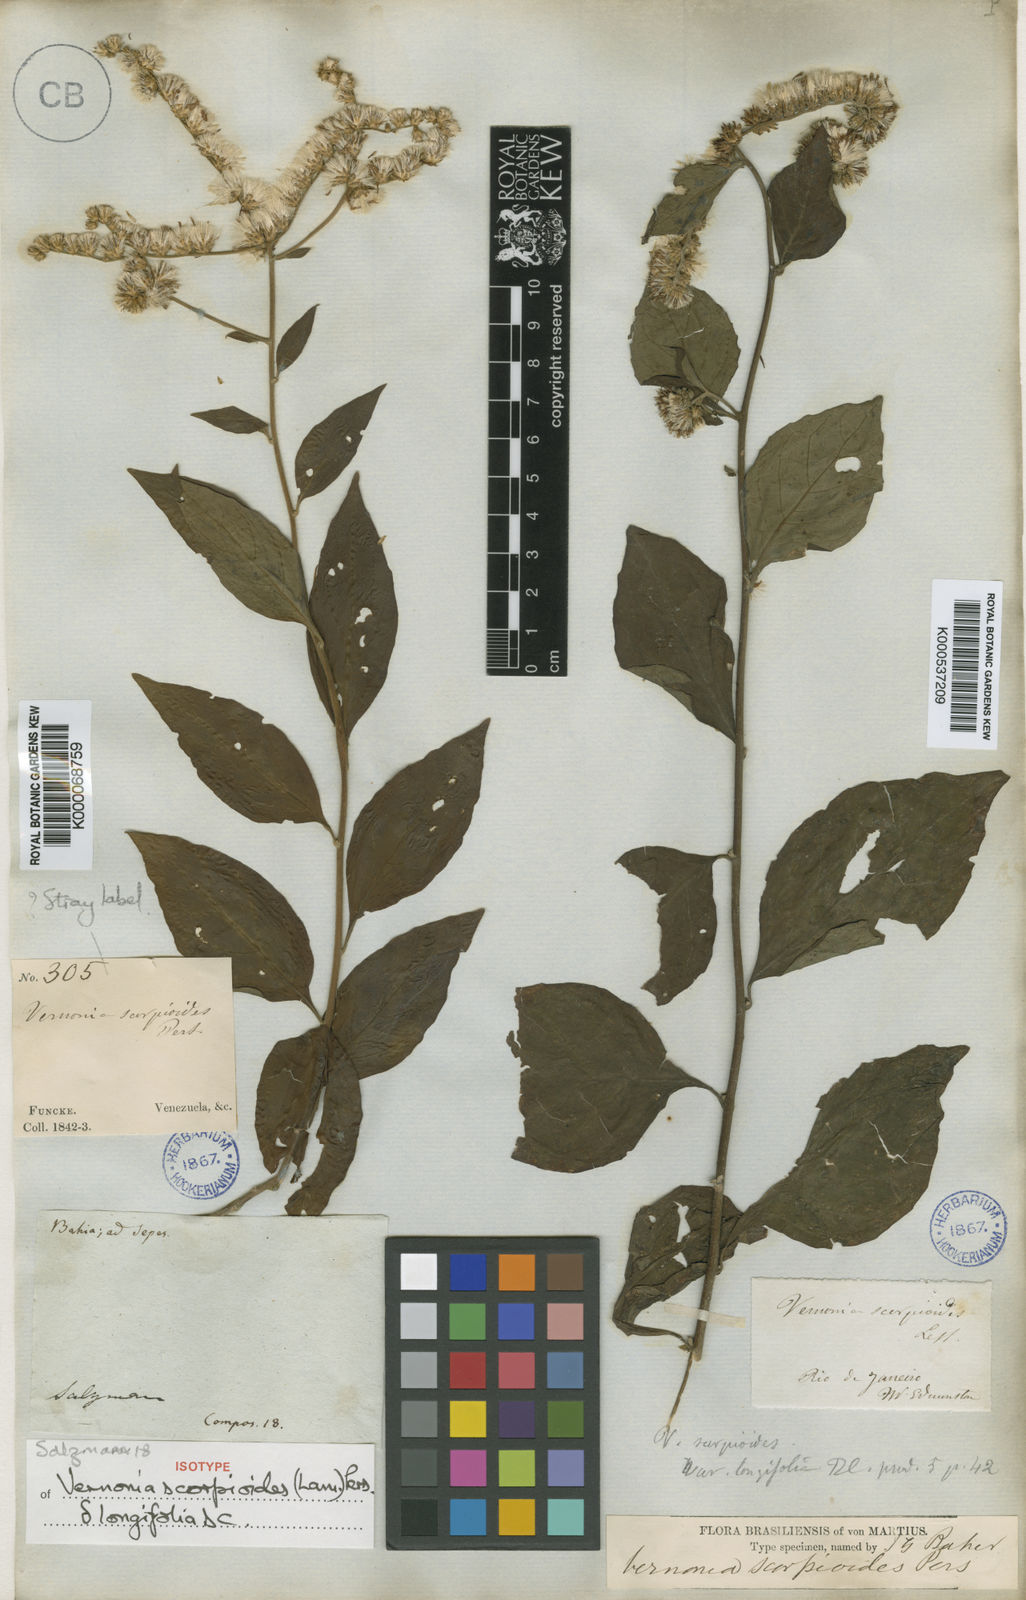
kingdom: Plantae
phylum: Tracheophyta
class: Magnoliopsida
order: Asterales
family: Asteraceae
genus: Cyrtocymura
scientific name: Cyrtocymura scorpioides
